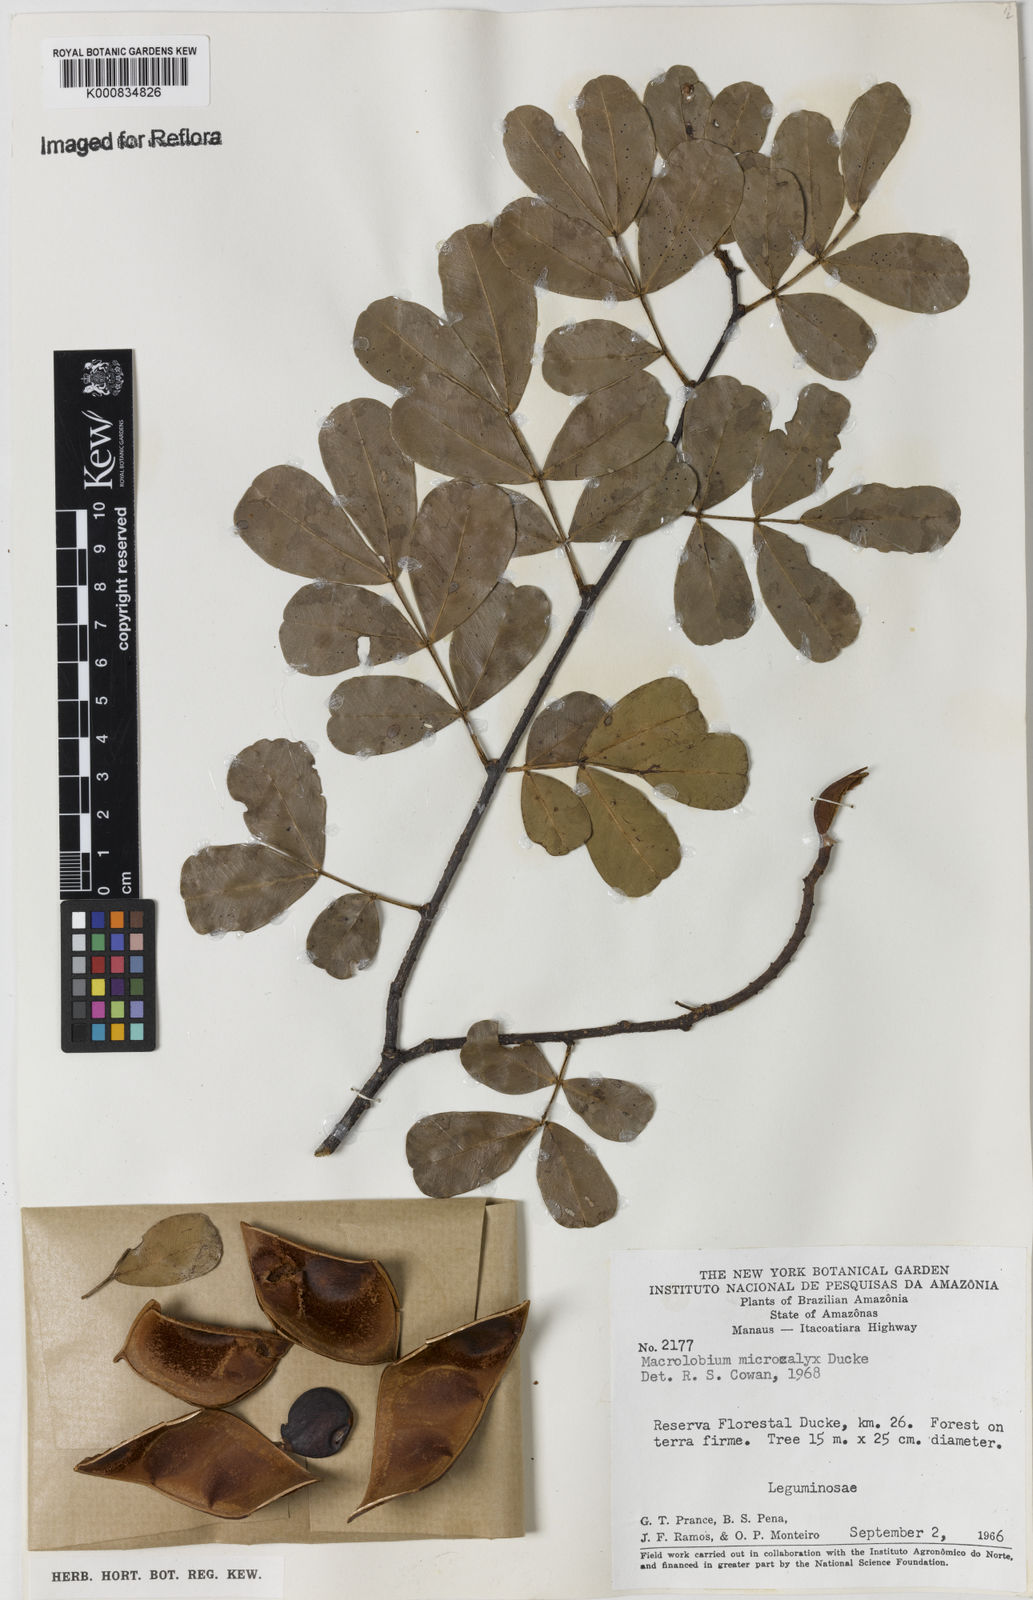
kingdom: Plantae
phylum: Tracheophyta
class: Magnoliopsida
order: Fabales
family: Fabaceae
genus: Macrolobium
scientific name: Macrolobium microcalyx
